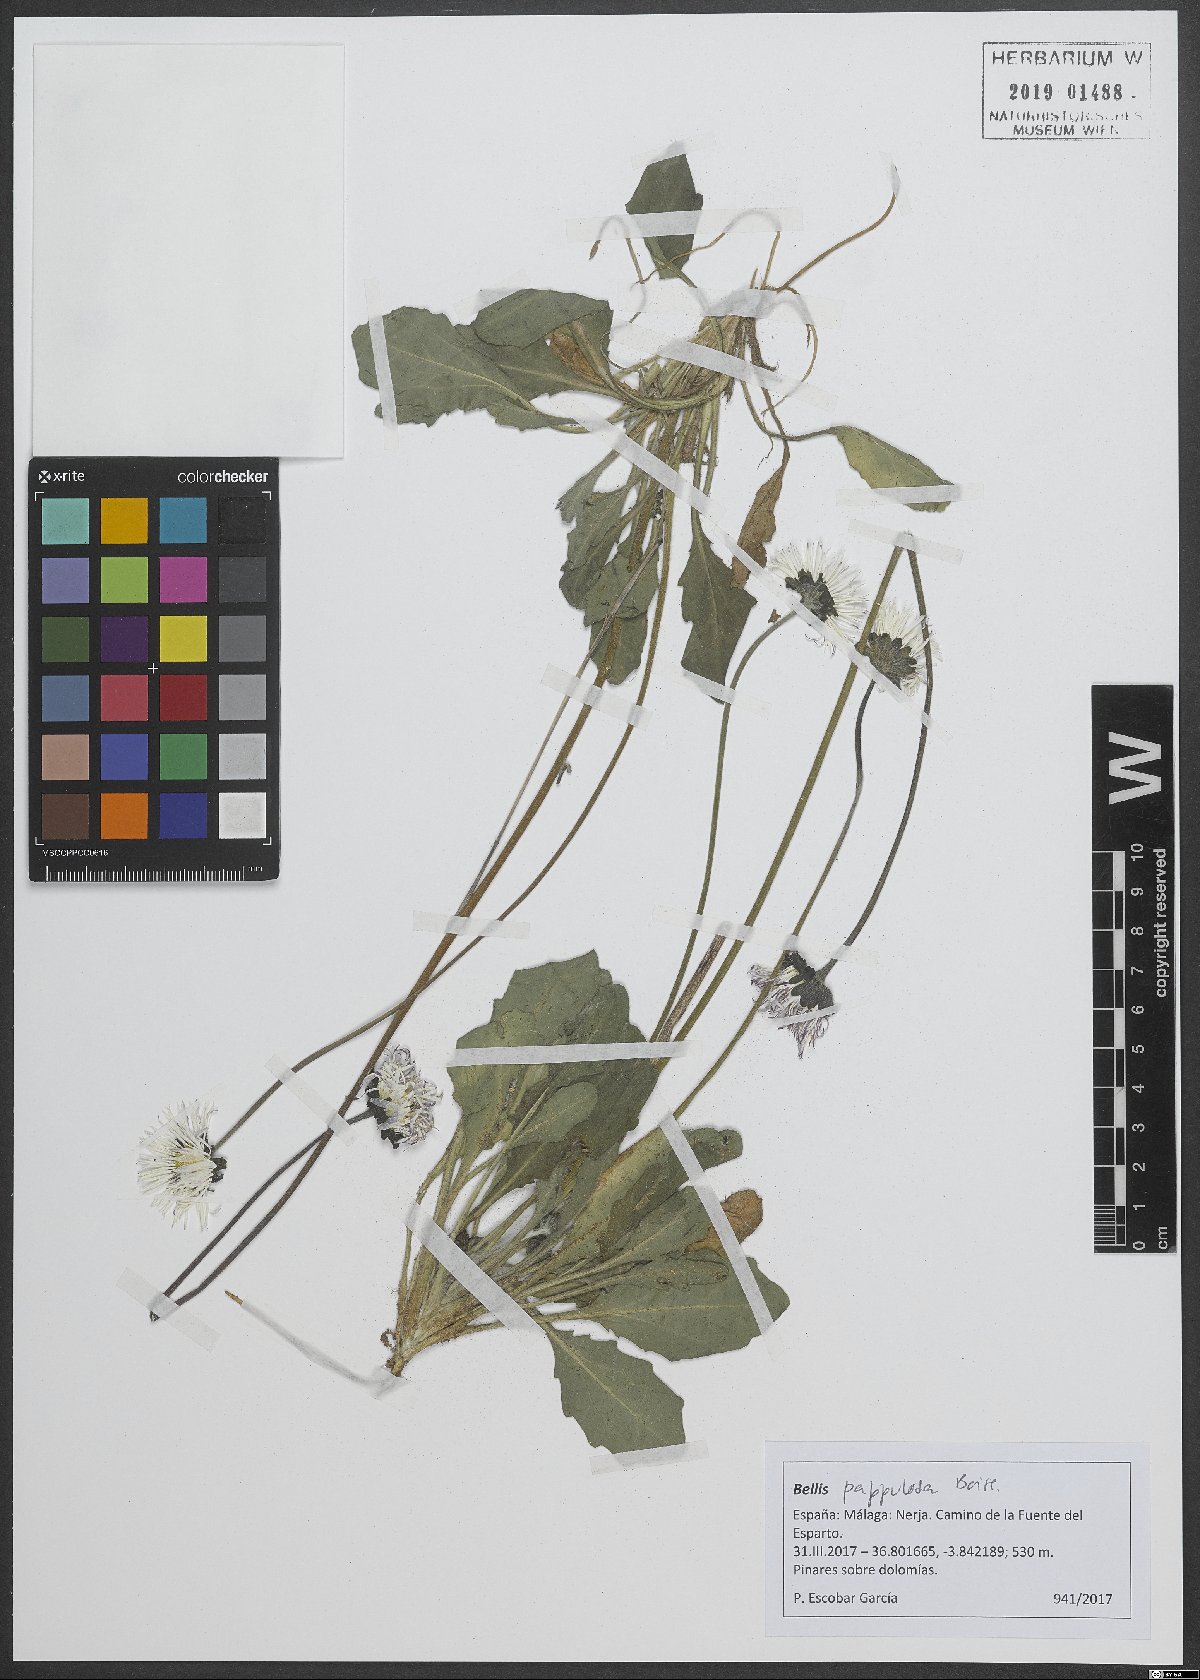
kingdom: Plantae
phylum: Tracheophyta
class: Magnoliopsida
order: Asterales
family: Asteraceae
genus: Bellis
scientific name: Bellis sylvestris
